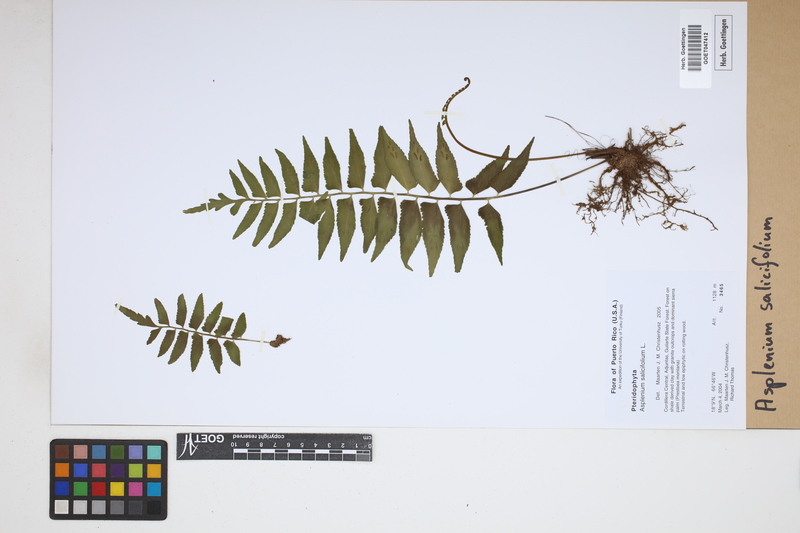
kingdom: Plantae
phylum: Tracheophyta
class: Polypodiopsida
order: Polypodiales
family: Aspleniaceae
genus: Asplenium
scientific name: Asplenium salicifolium
